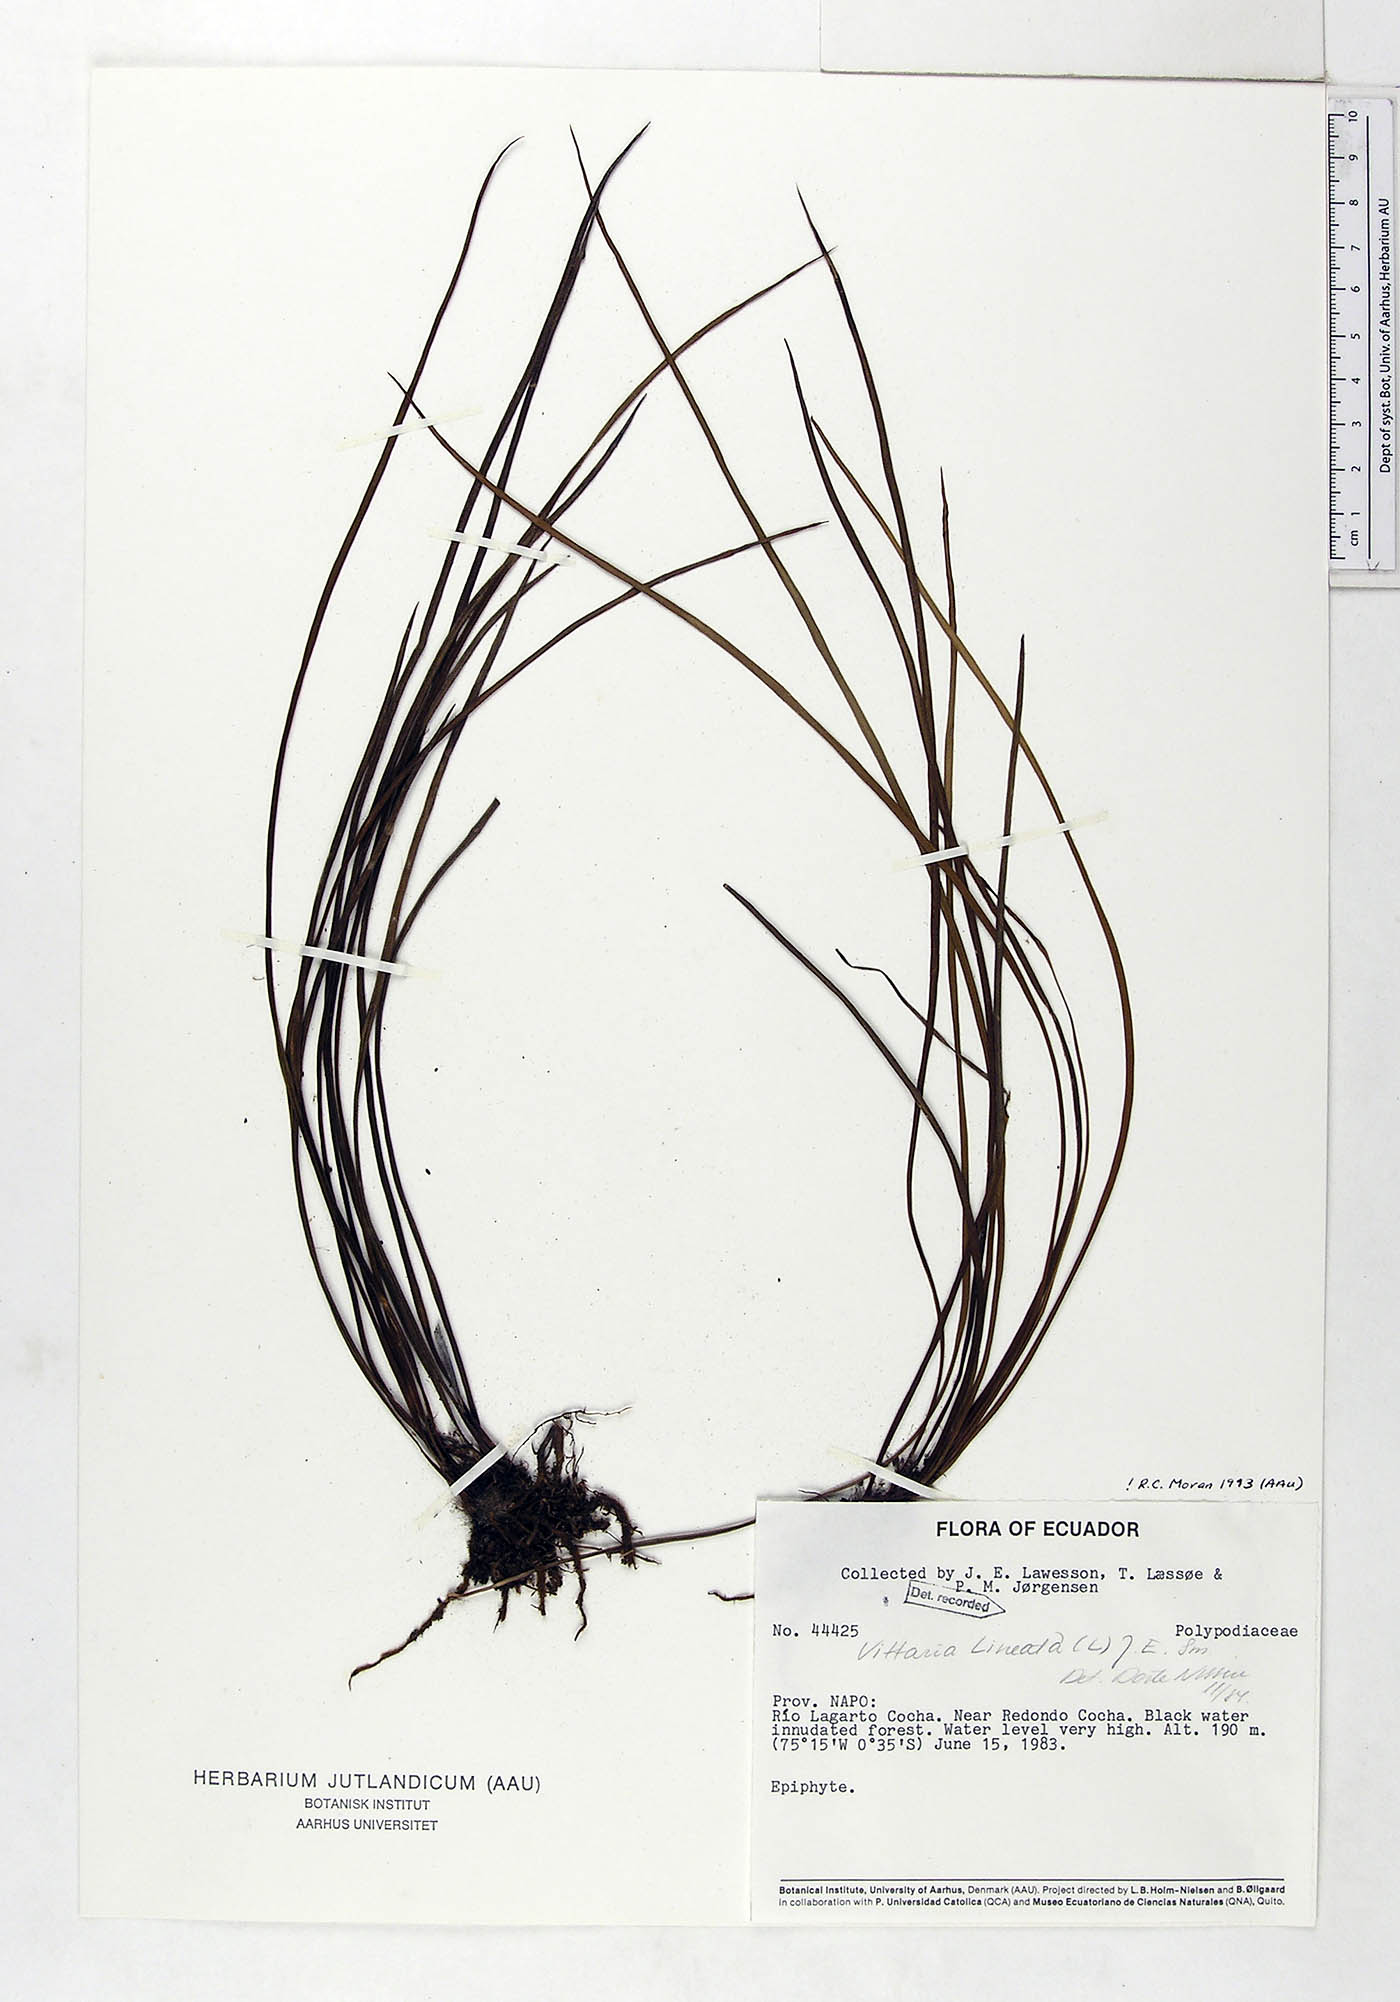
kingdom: Plantae
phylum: Tracheophyta
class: Polypodiopsida
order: Polypodiales
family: Pteridaceae
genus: Radiovittaria
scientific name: Radiovittaria latifolia
